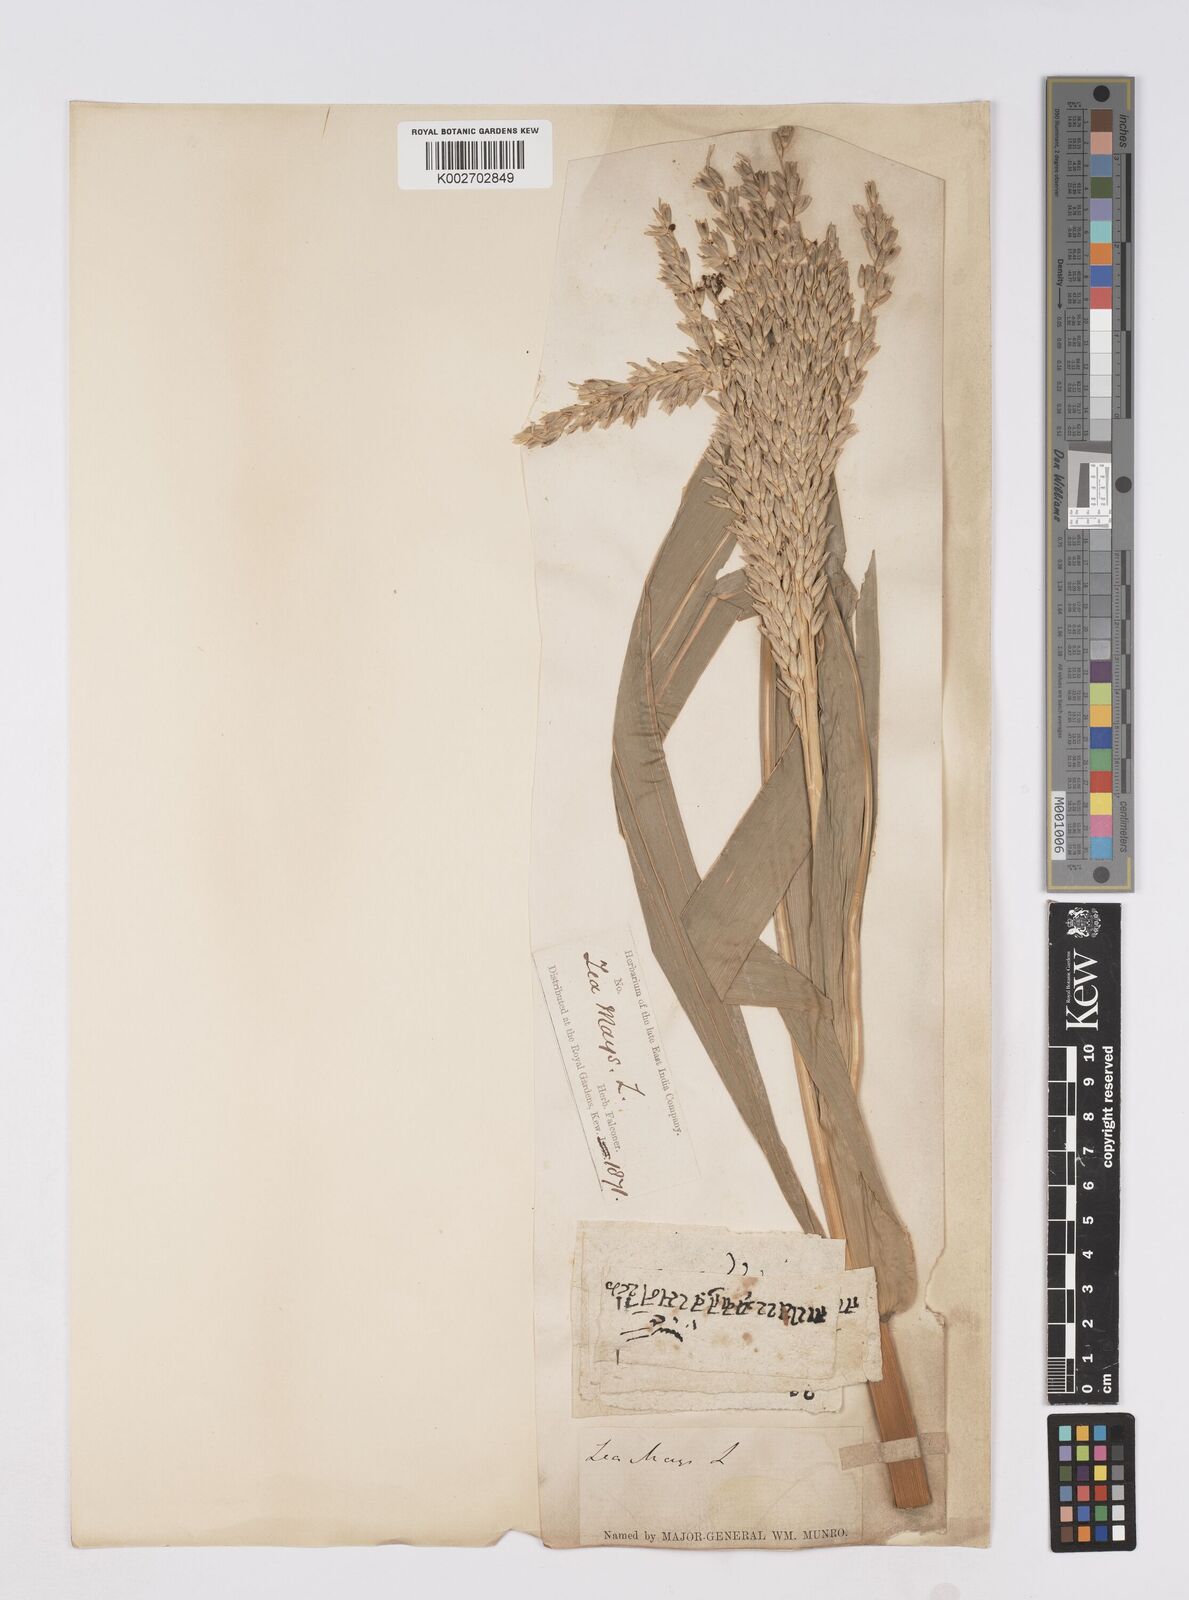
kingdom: Plantae
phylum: Tracheophyta
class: Liliopsida
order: Poales
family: Poaceae
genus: Zea
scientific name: Zea mays
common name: Maize
